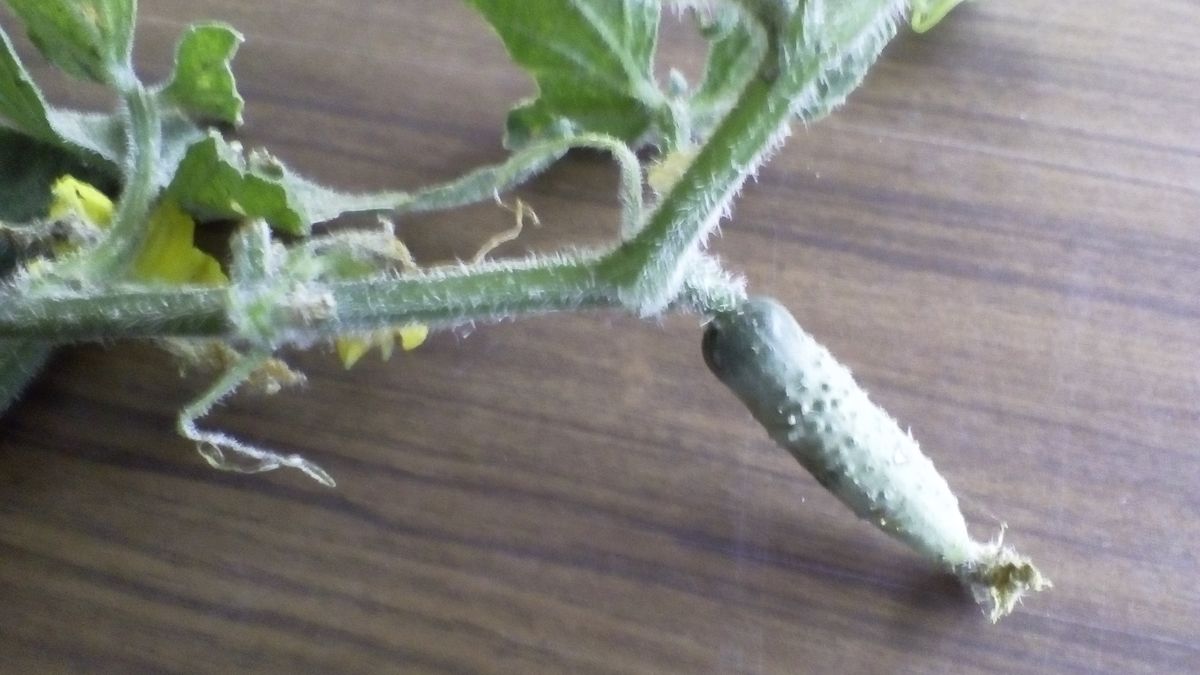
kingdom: Plantae
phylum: Tracheophyta
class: Magnoliopsida
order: Cucurbitales
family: Cucurbitaceae
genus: Cucumis
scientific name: Cucumis sativus
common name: Cucumber
